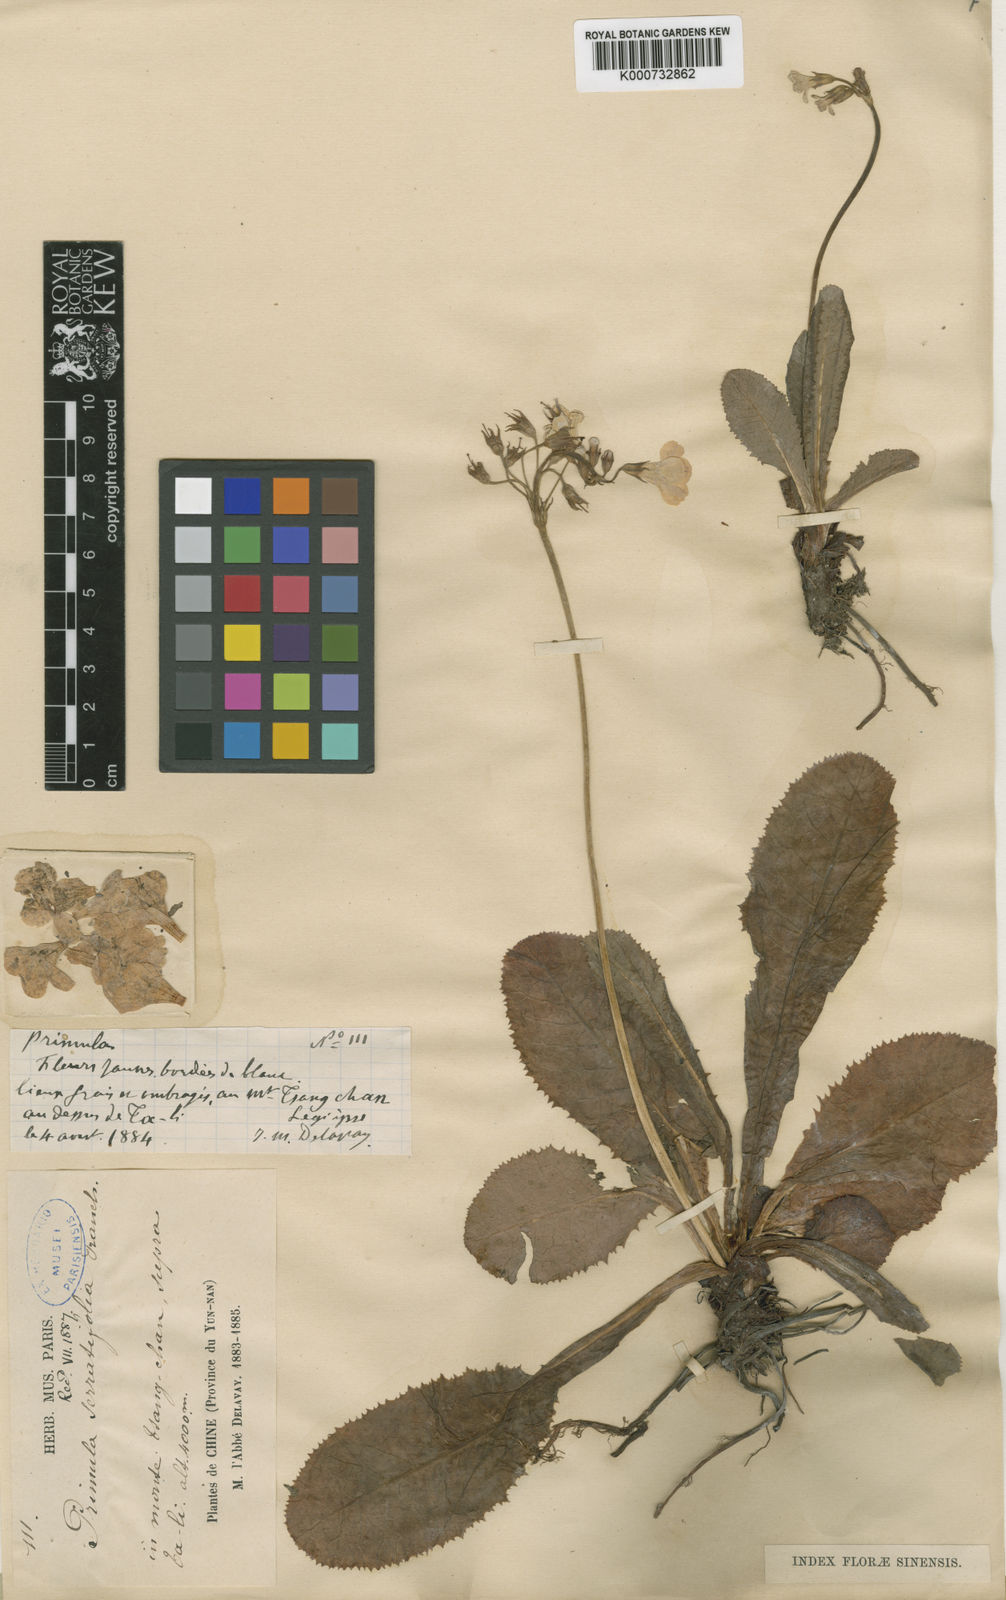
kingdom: Plantae
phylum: Tracheophyta
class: Magnoliopsida
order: Ericales
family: Primulaceae
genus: Primula
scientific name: Primula serratifolia
